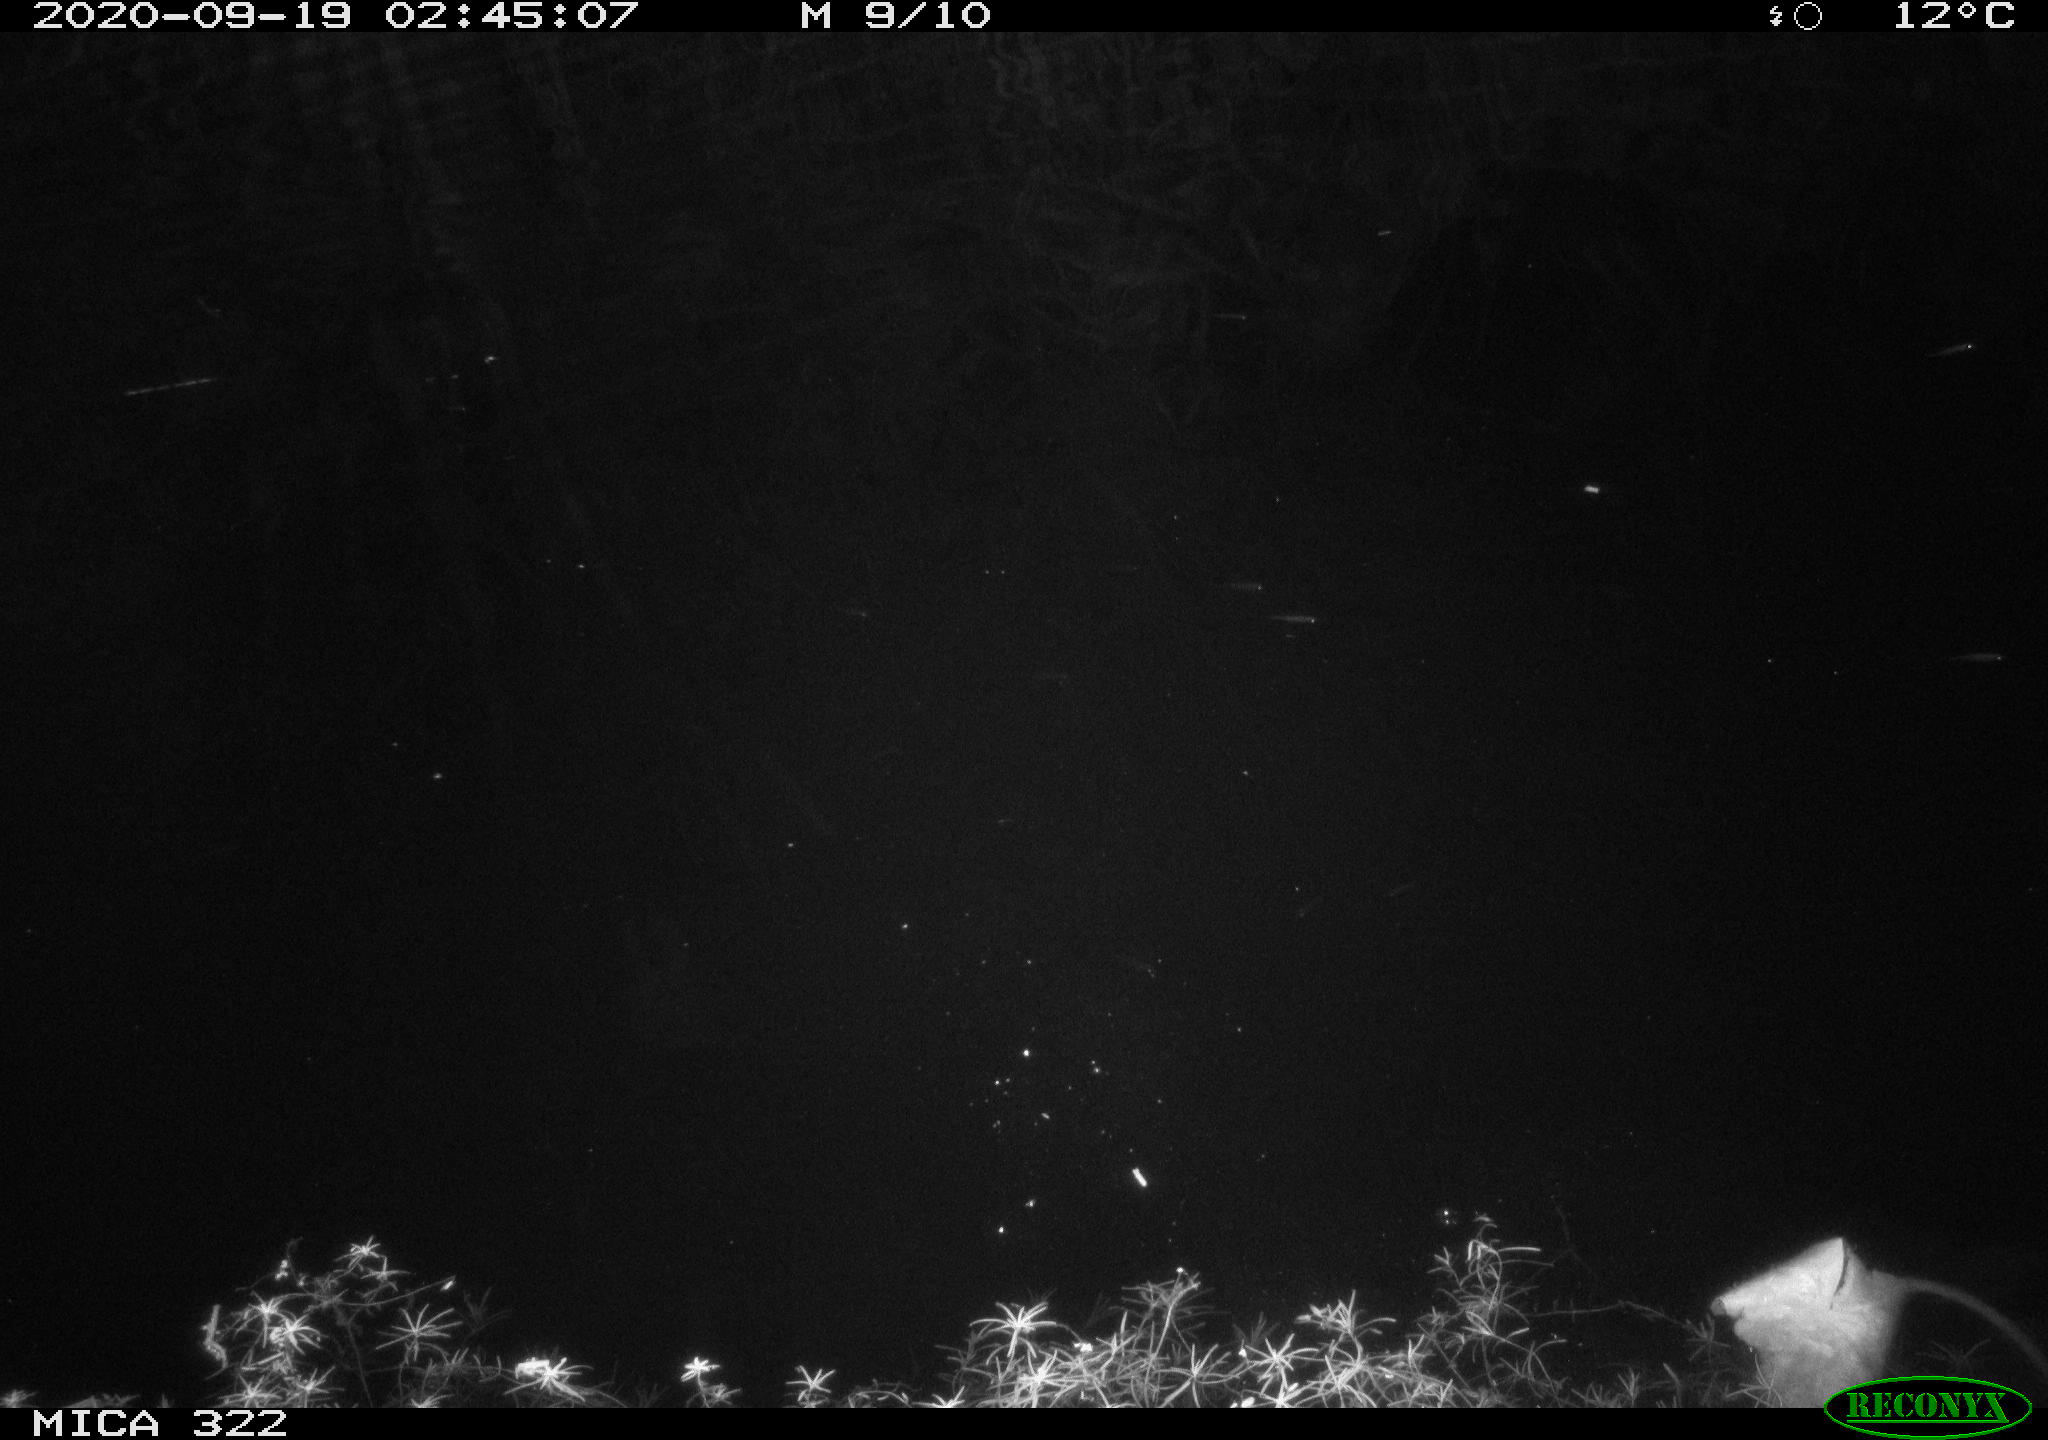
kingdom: Animalia
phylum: Chordata
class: Mammalia
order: Rodentia
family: Muridae
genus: Rattus
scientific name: Rattus norvegicus
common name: Brown rat
